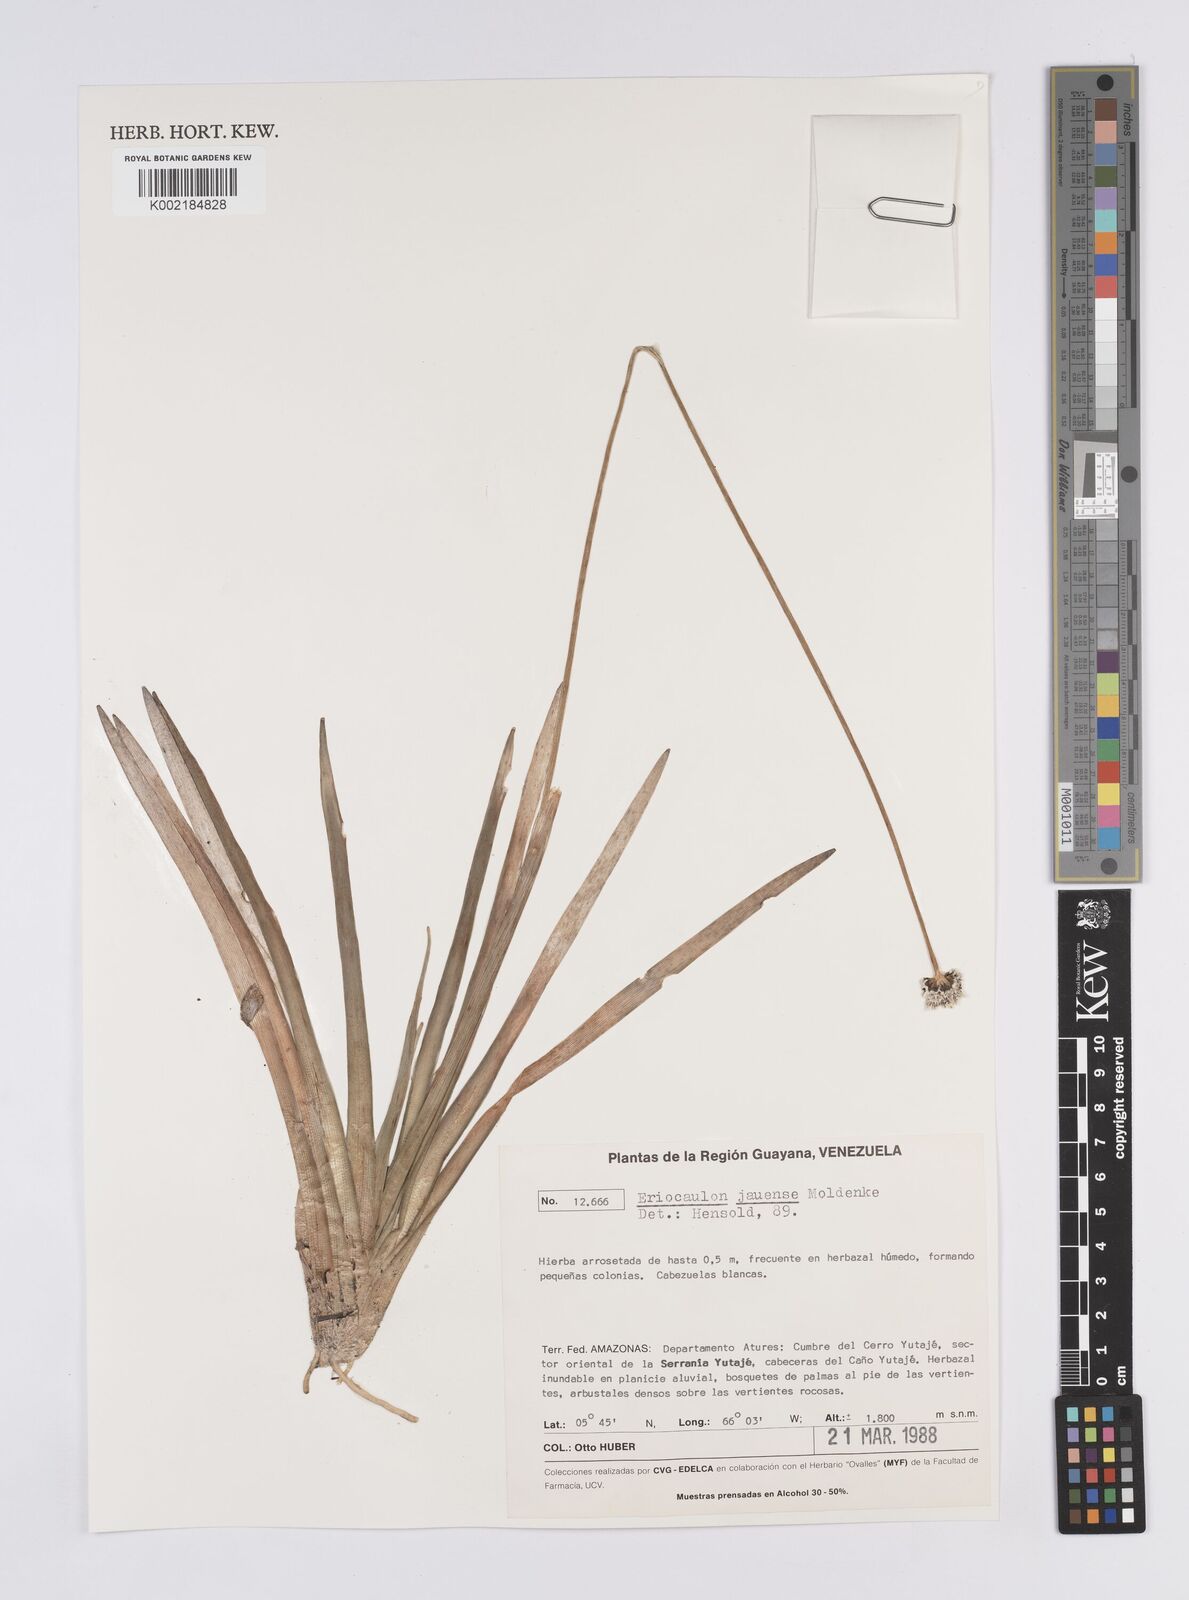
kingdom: Plantae
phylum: Tracheophyta
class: Liliopsida
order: Poales
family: Eriocaulaceae
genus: Eriocaulon
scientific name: Eriocaulon jauense
